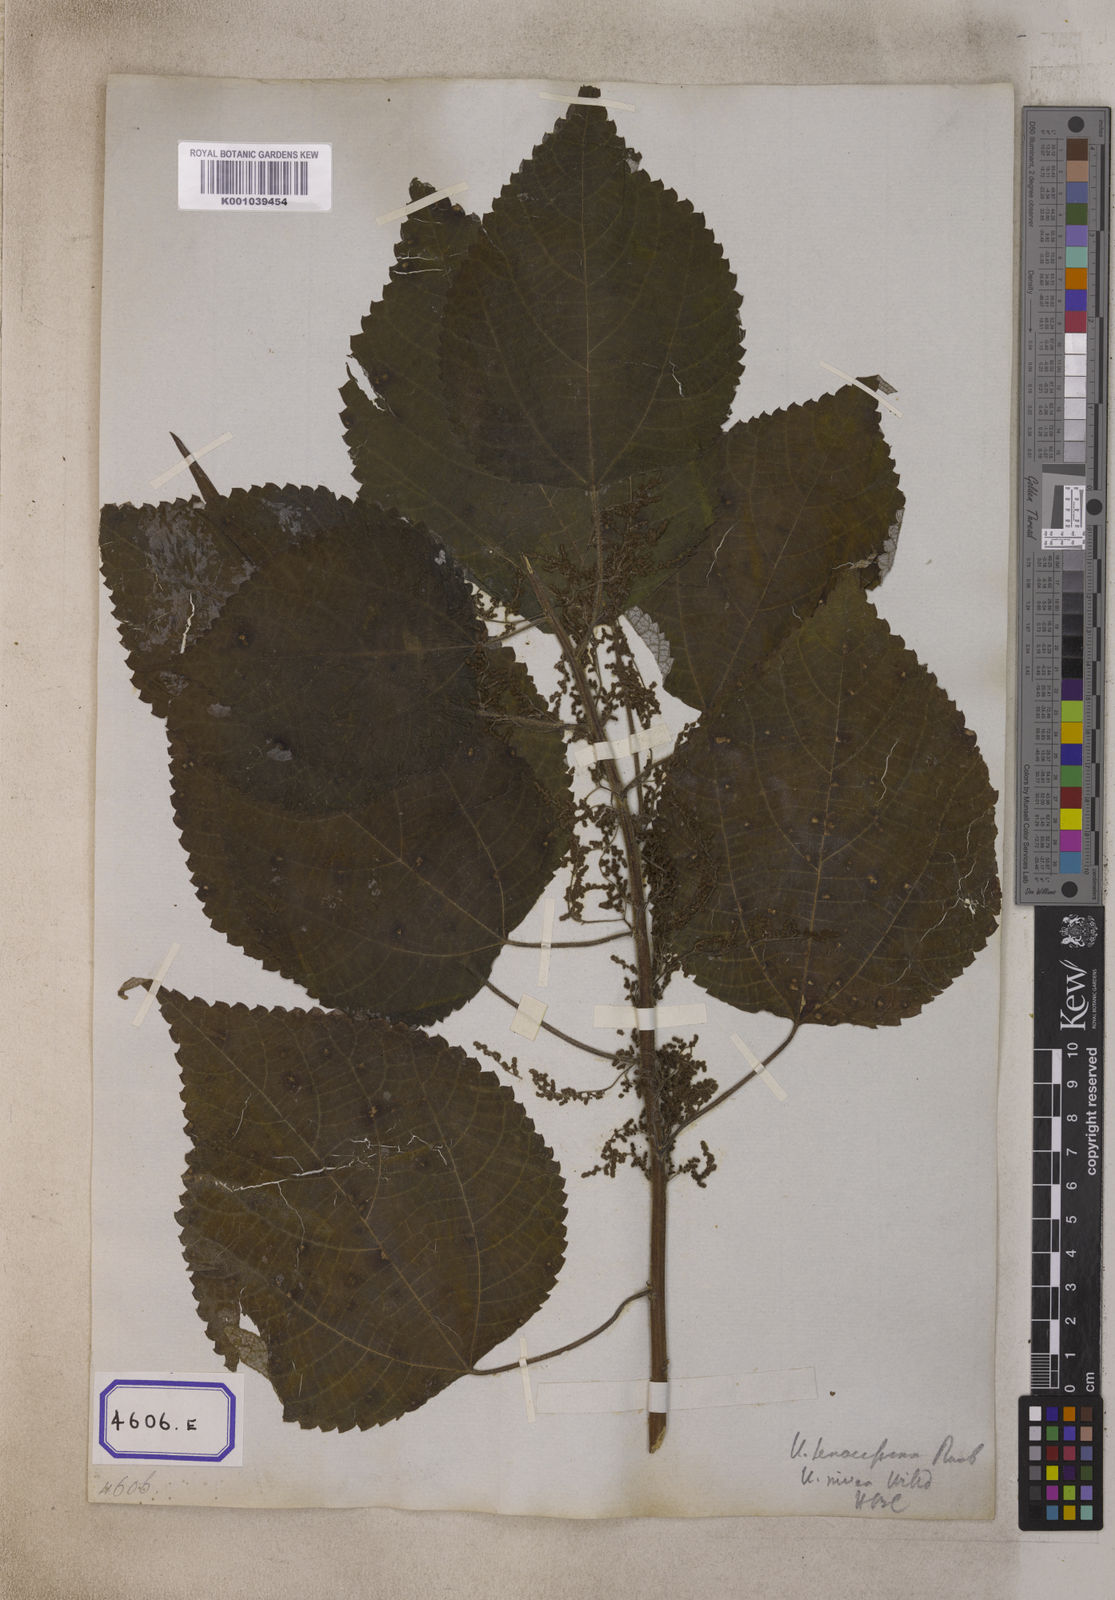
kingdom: Plantae
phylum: Tracheophyta
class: Magnoliopsida
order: Rosales
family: Urticaceae
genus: Boehmeria
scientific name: Boehmeria nivea
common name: Ramie chinese grass
